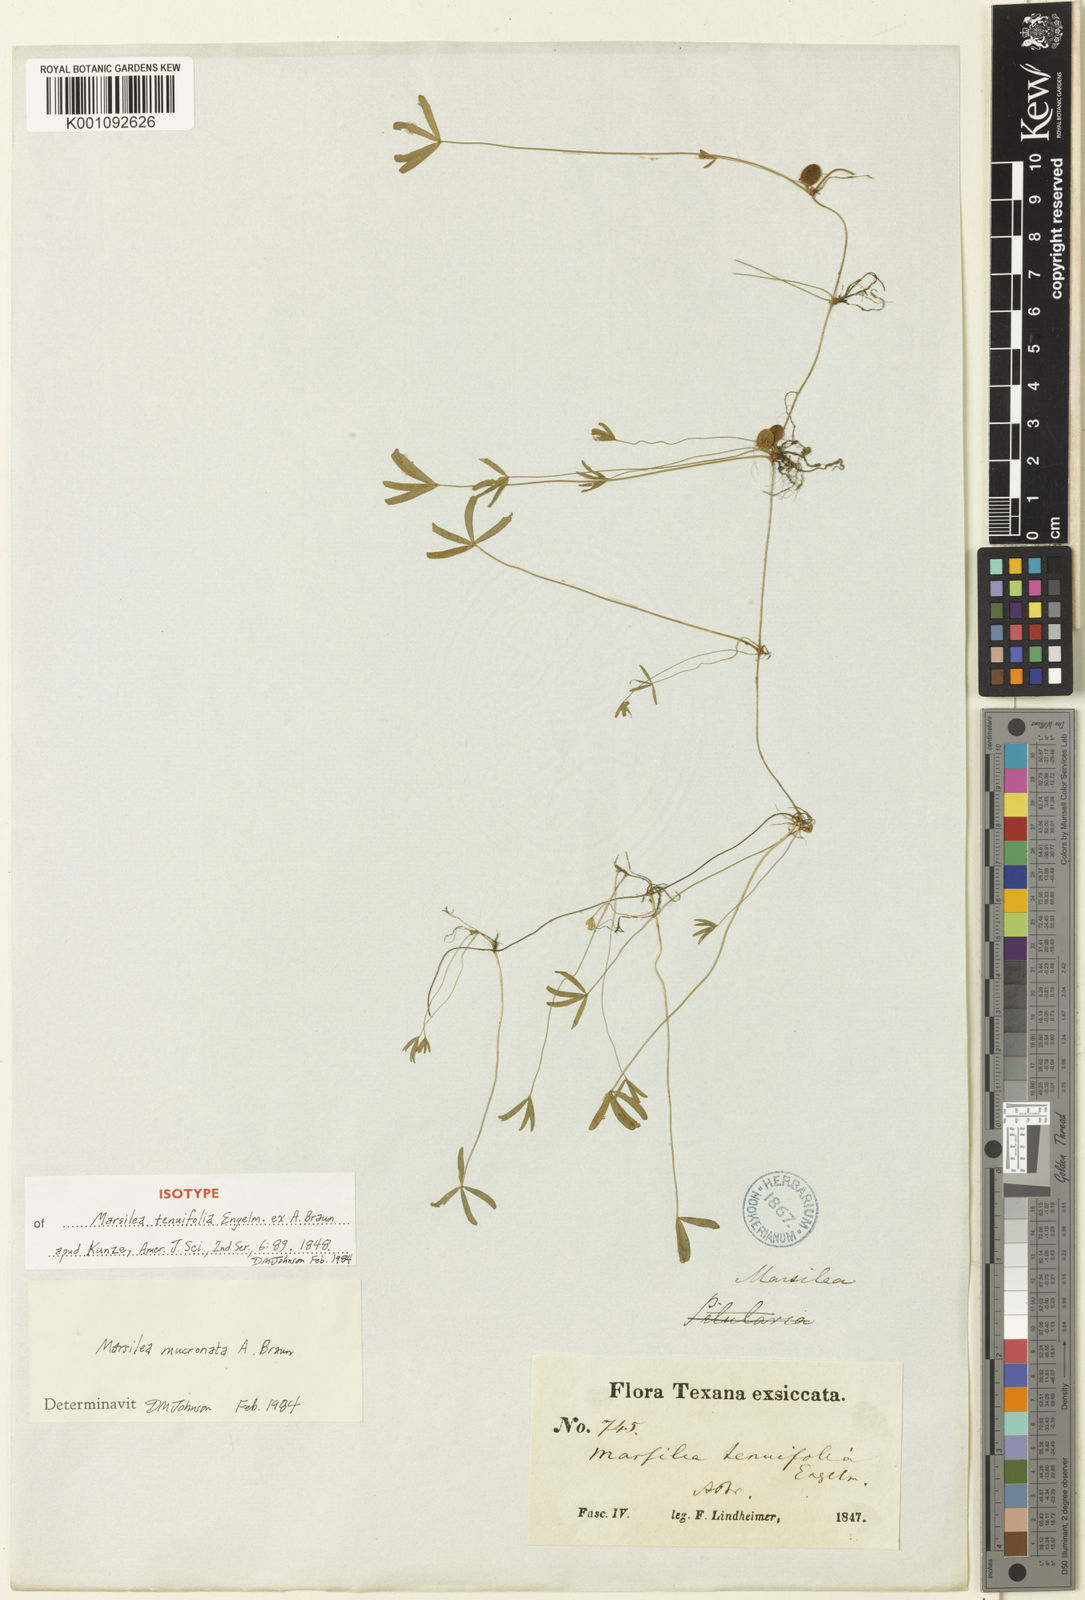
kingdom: Plantae
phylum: Tracheophyta
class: Polypodiopsida
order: Salviniales
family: Marsileaceae
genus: Marsilea
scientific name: Marsilea vestita
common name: Hooked-pepperwort
